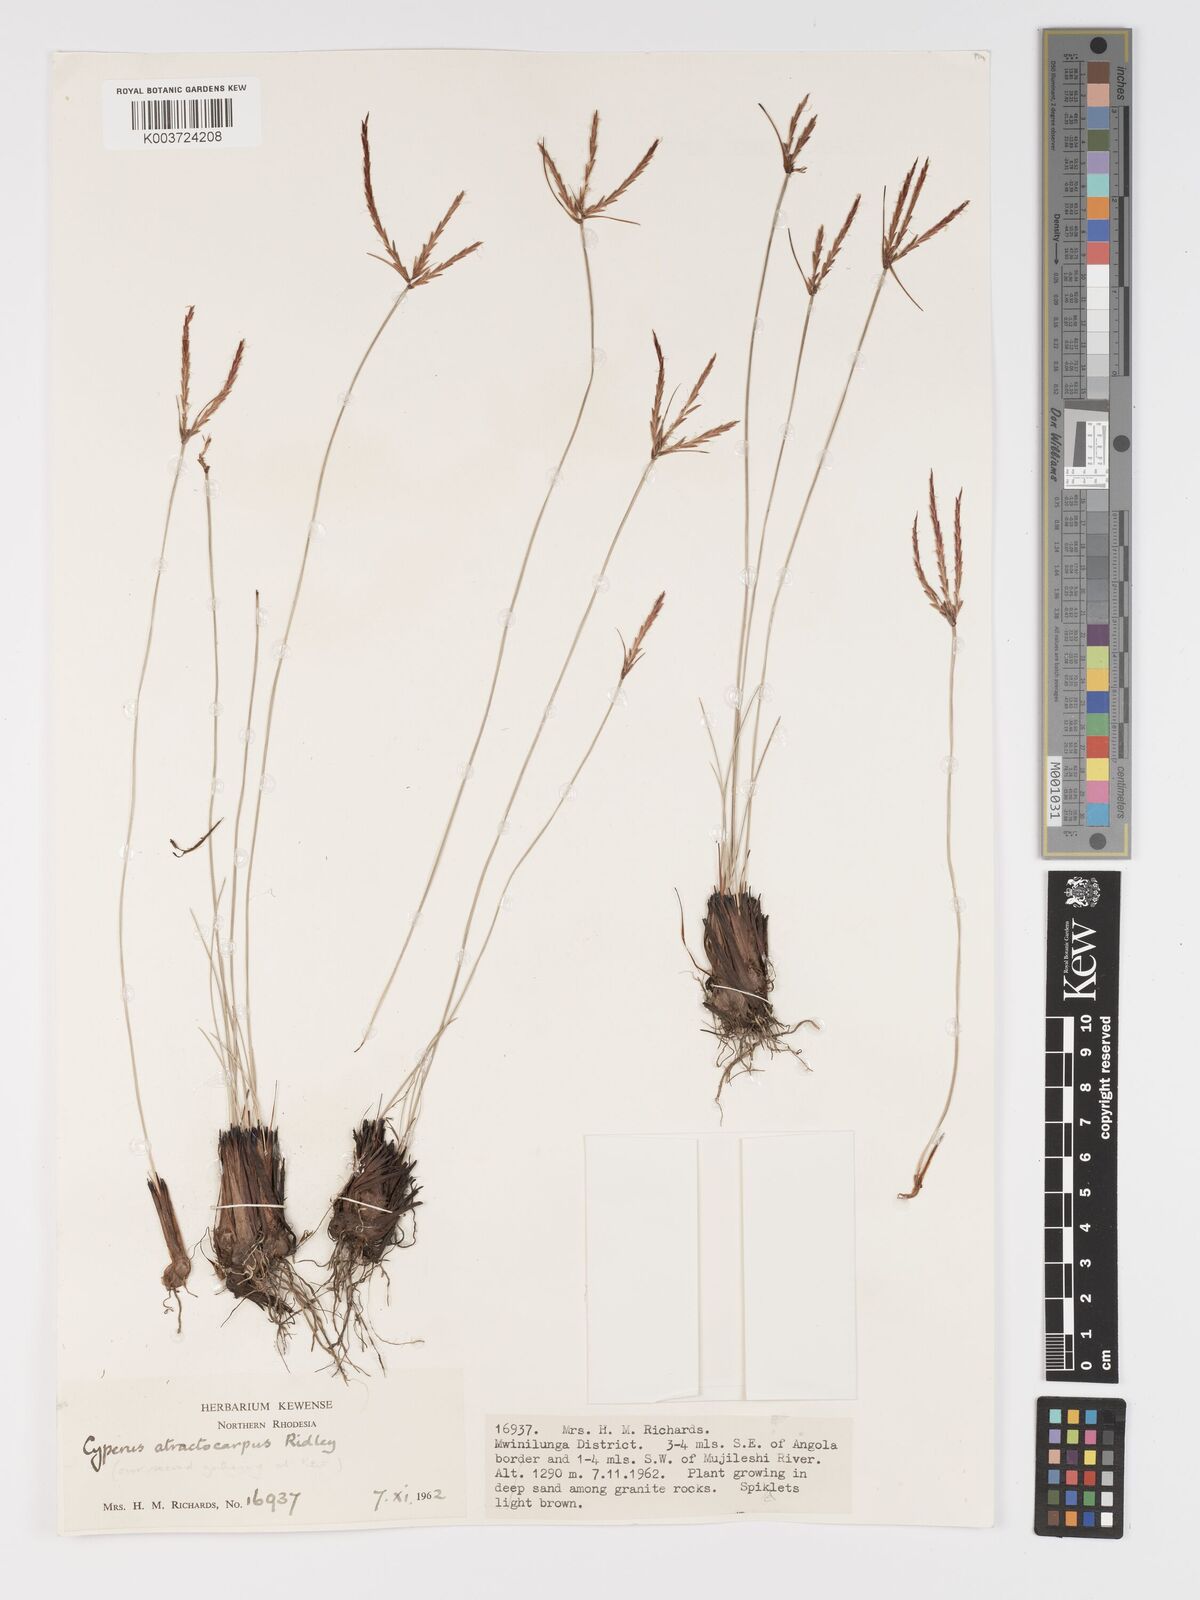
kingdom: Plantae
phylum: Tracheophyta
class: Liliopsida
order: Poales
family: Cyperaceae
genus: Cyperus
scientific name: Cyperus atractocarpus
